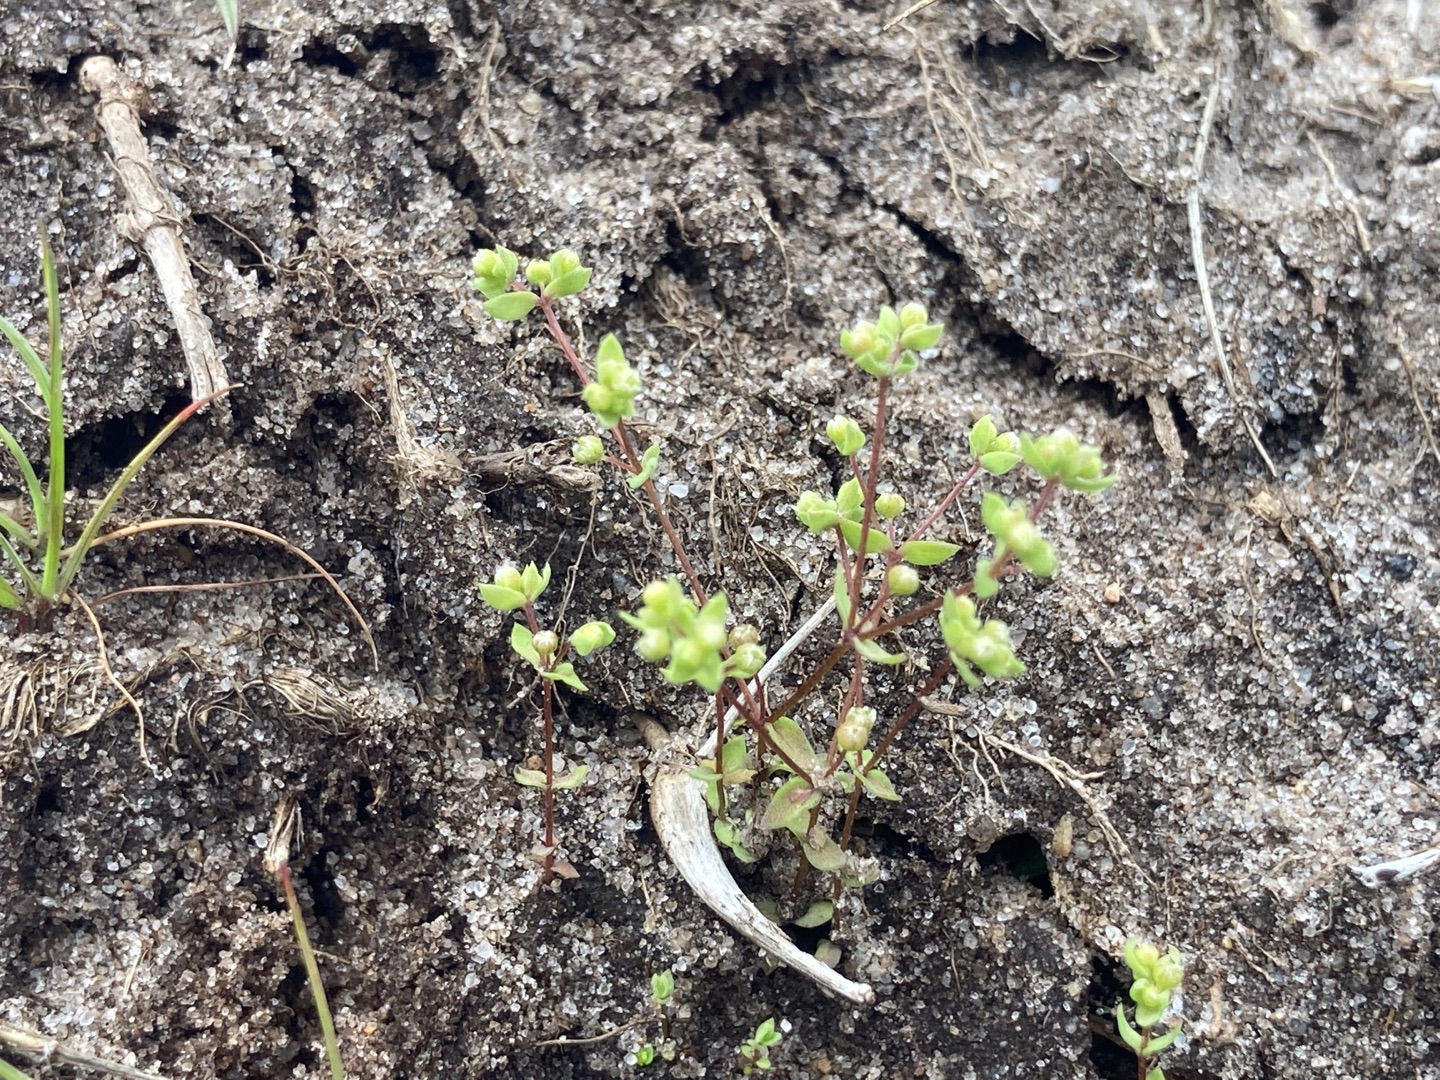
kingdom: Plantae
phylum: Tracheophyta
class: Magnoliopsida
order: Malpighiales
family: Linaceae
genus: Radiola
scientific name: Radiola linoides
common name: Tusindfrø
